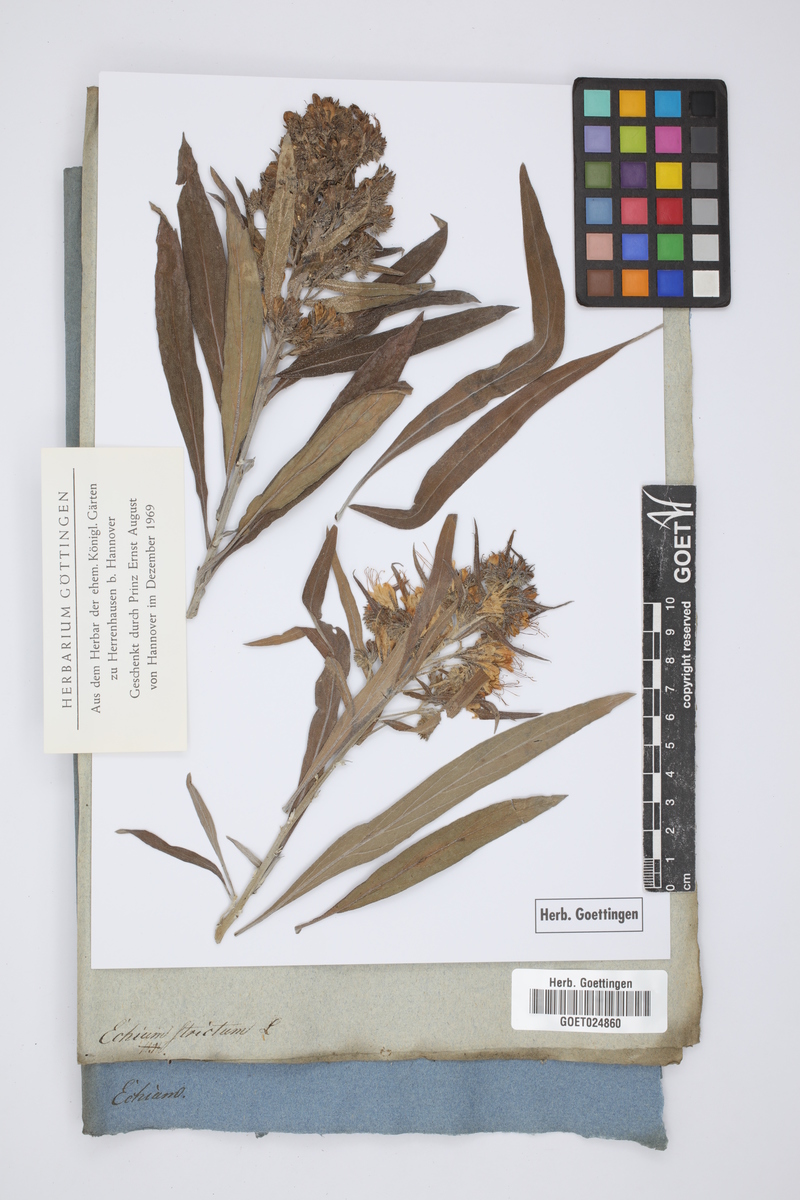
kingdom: Plantae
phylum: Tracheophyta
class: Magnoliopsida
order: Boraginales
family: Boraginaceae
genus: Echium
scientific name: Echium strictum
